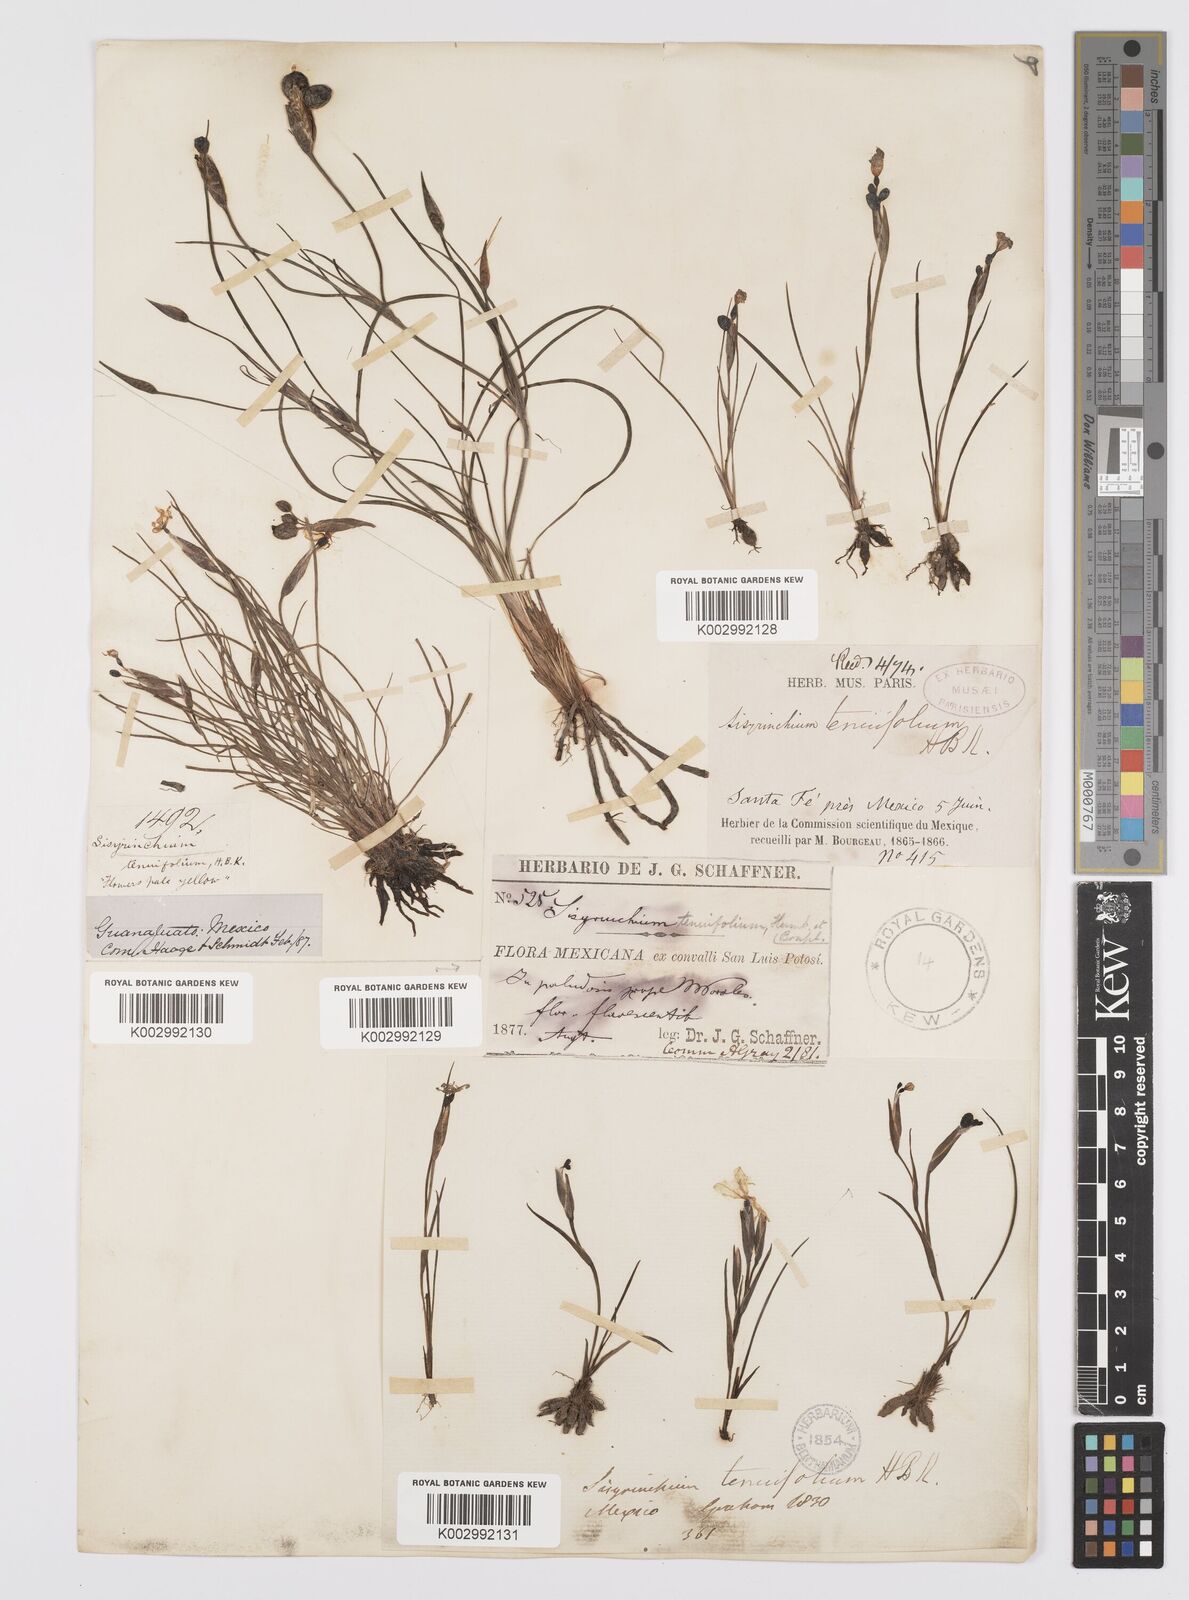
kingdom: Plantae
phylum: Tracheophyta
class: Liliopsida
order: Asparagales
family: Iridaceae
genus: Sisyrinchium
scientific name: Sisyrinchium langloisii
